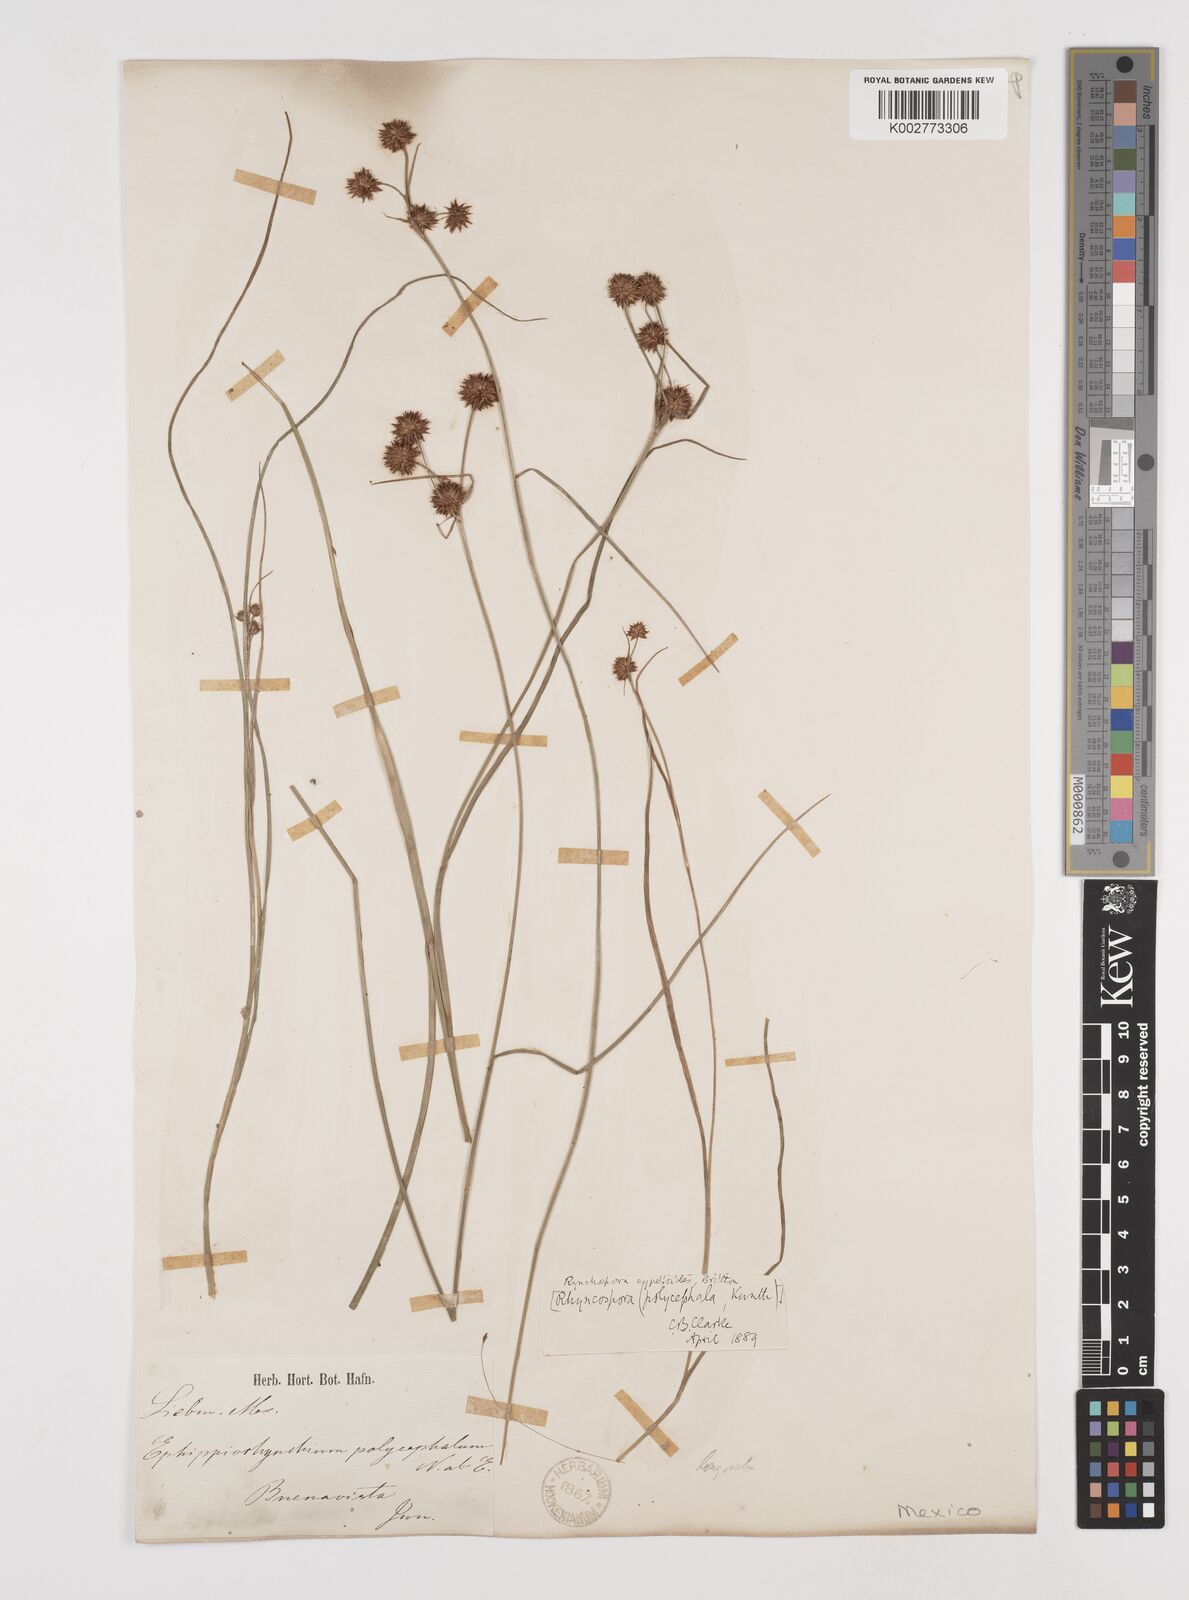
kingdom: Plantae
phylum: Tracheophyta
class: Liliopsida
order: Poales
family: Cyperaceae
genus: Rhynchospora
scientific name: Rhynchospora holoschoenoides
